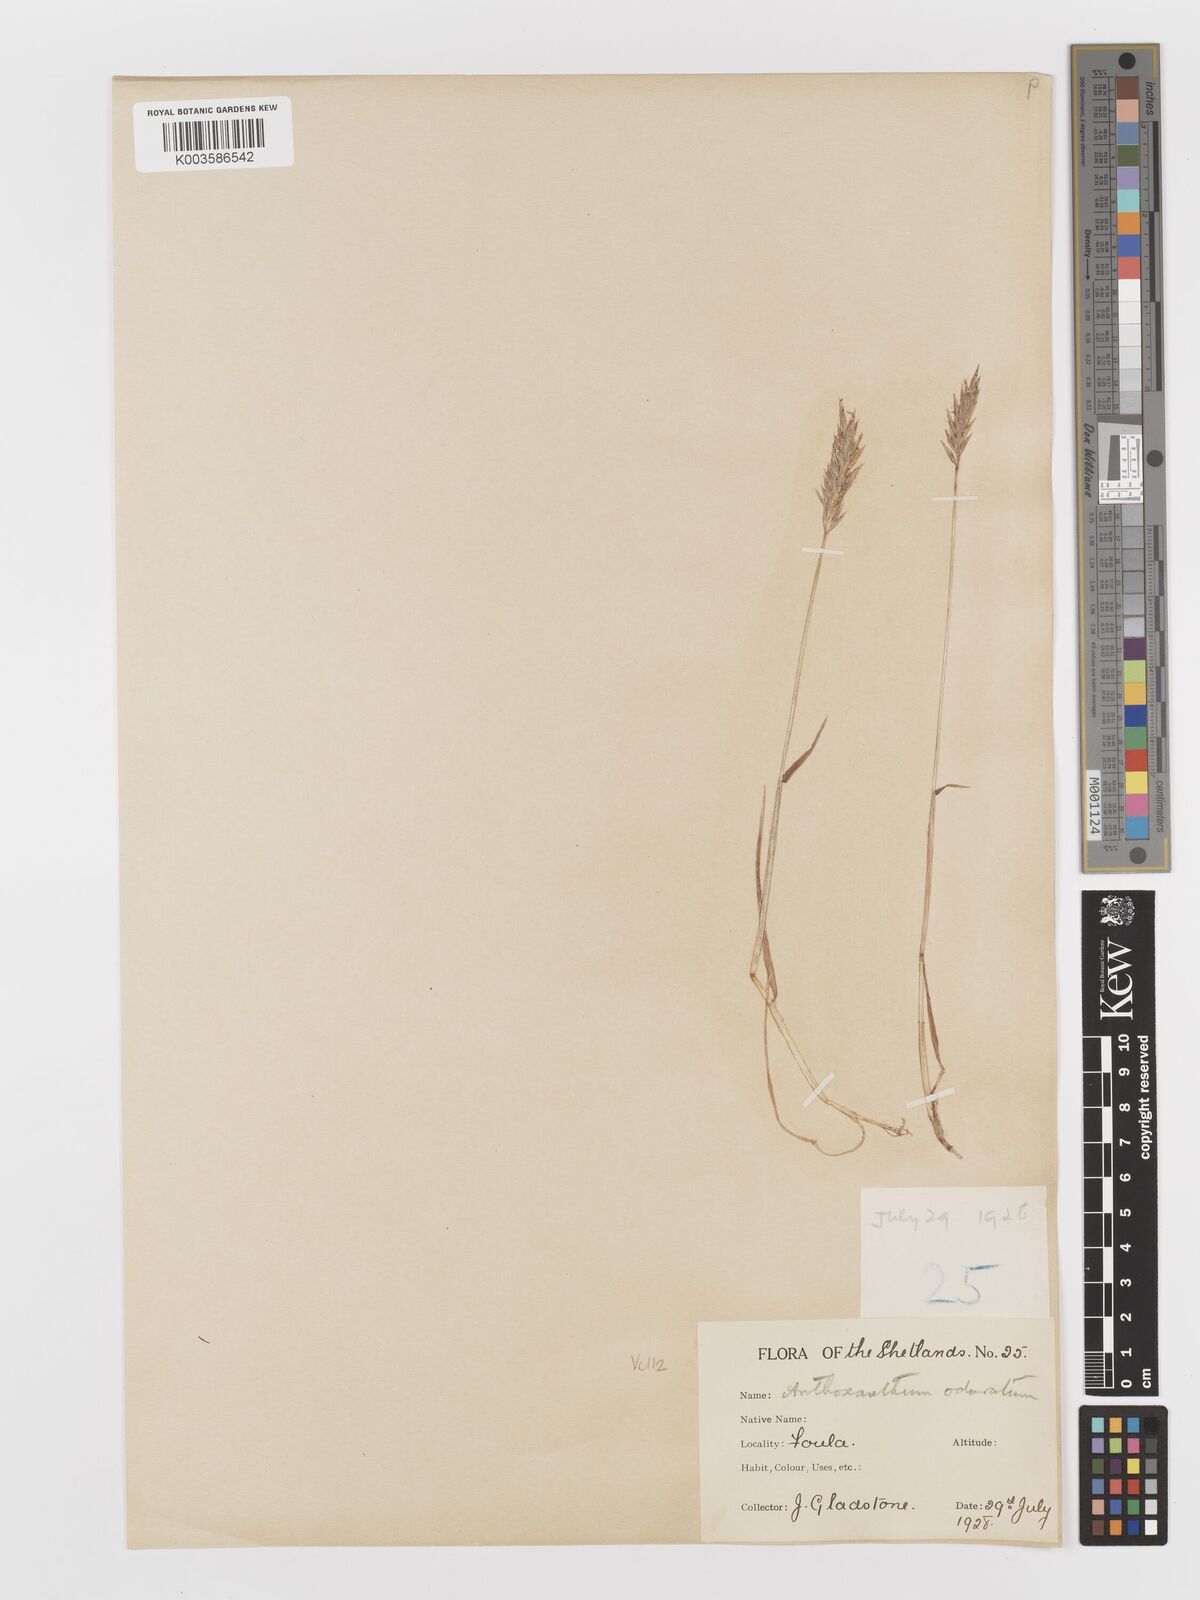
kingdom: Plantae
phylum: Tracheophyta
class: Liliopsida
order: Poales
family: Poaceae
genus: Anthoxanthum
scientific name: Anthoxanthum odoratum
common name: Sweet vernalgrass
